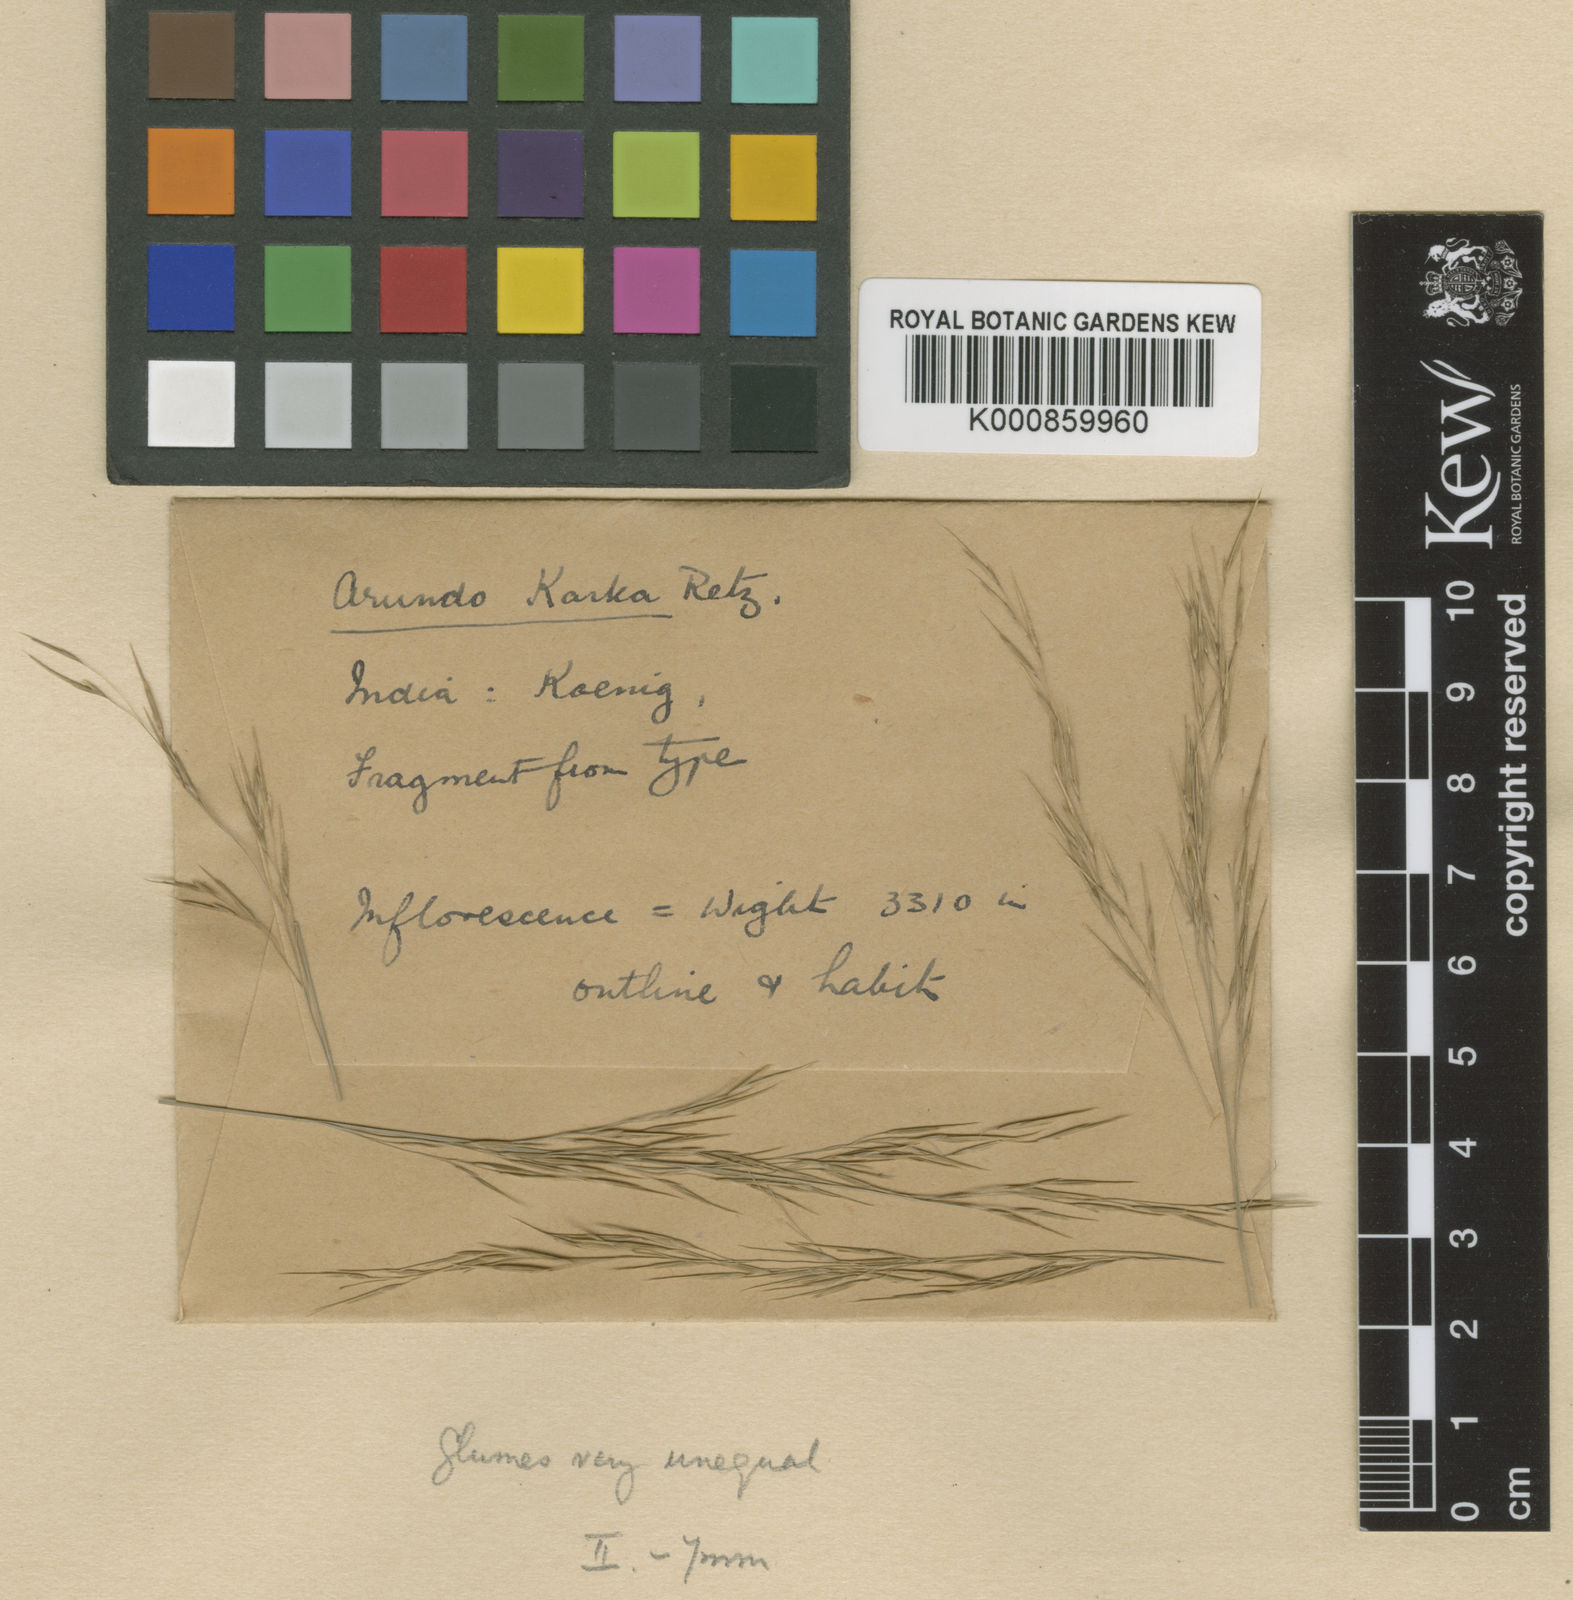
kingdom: Plantae
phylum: Tracheophyta
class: Liliopsida
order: Poales
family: Poaceae
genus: Phragmites
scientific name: Phragmites karka
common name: Tropical reed
